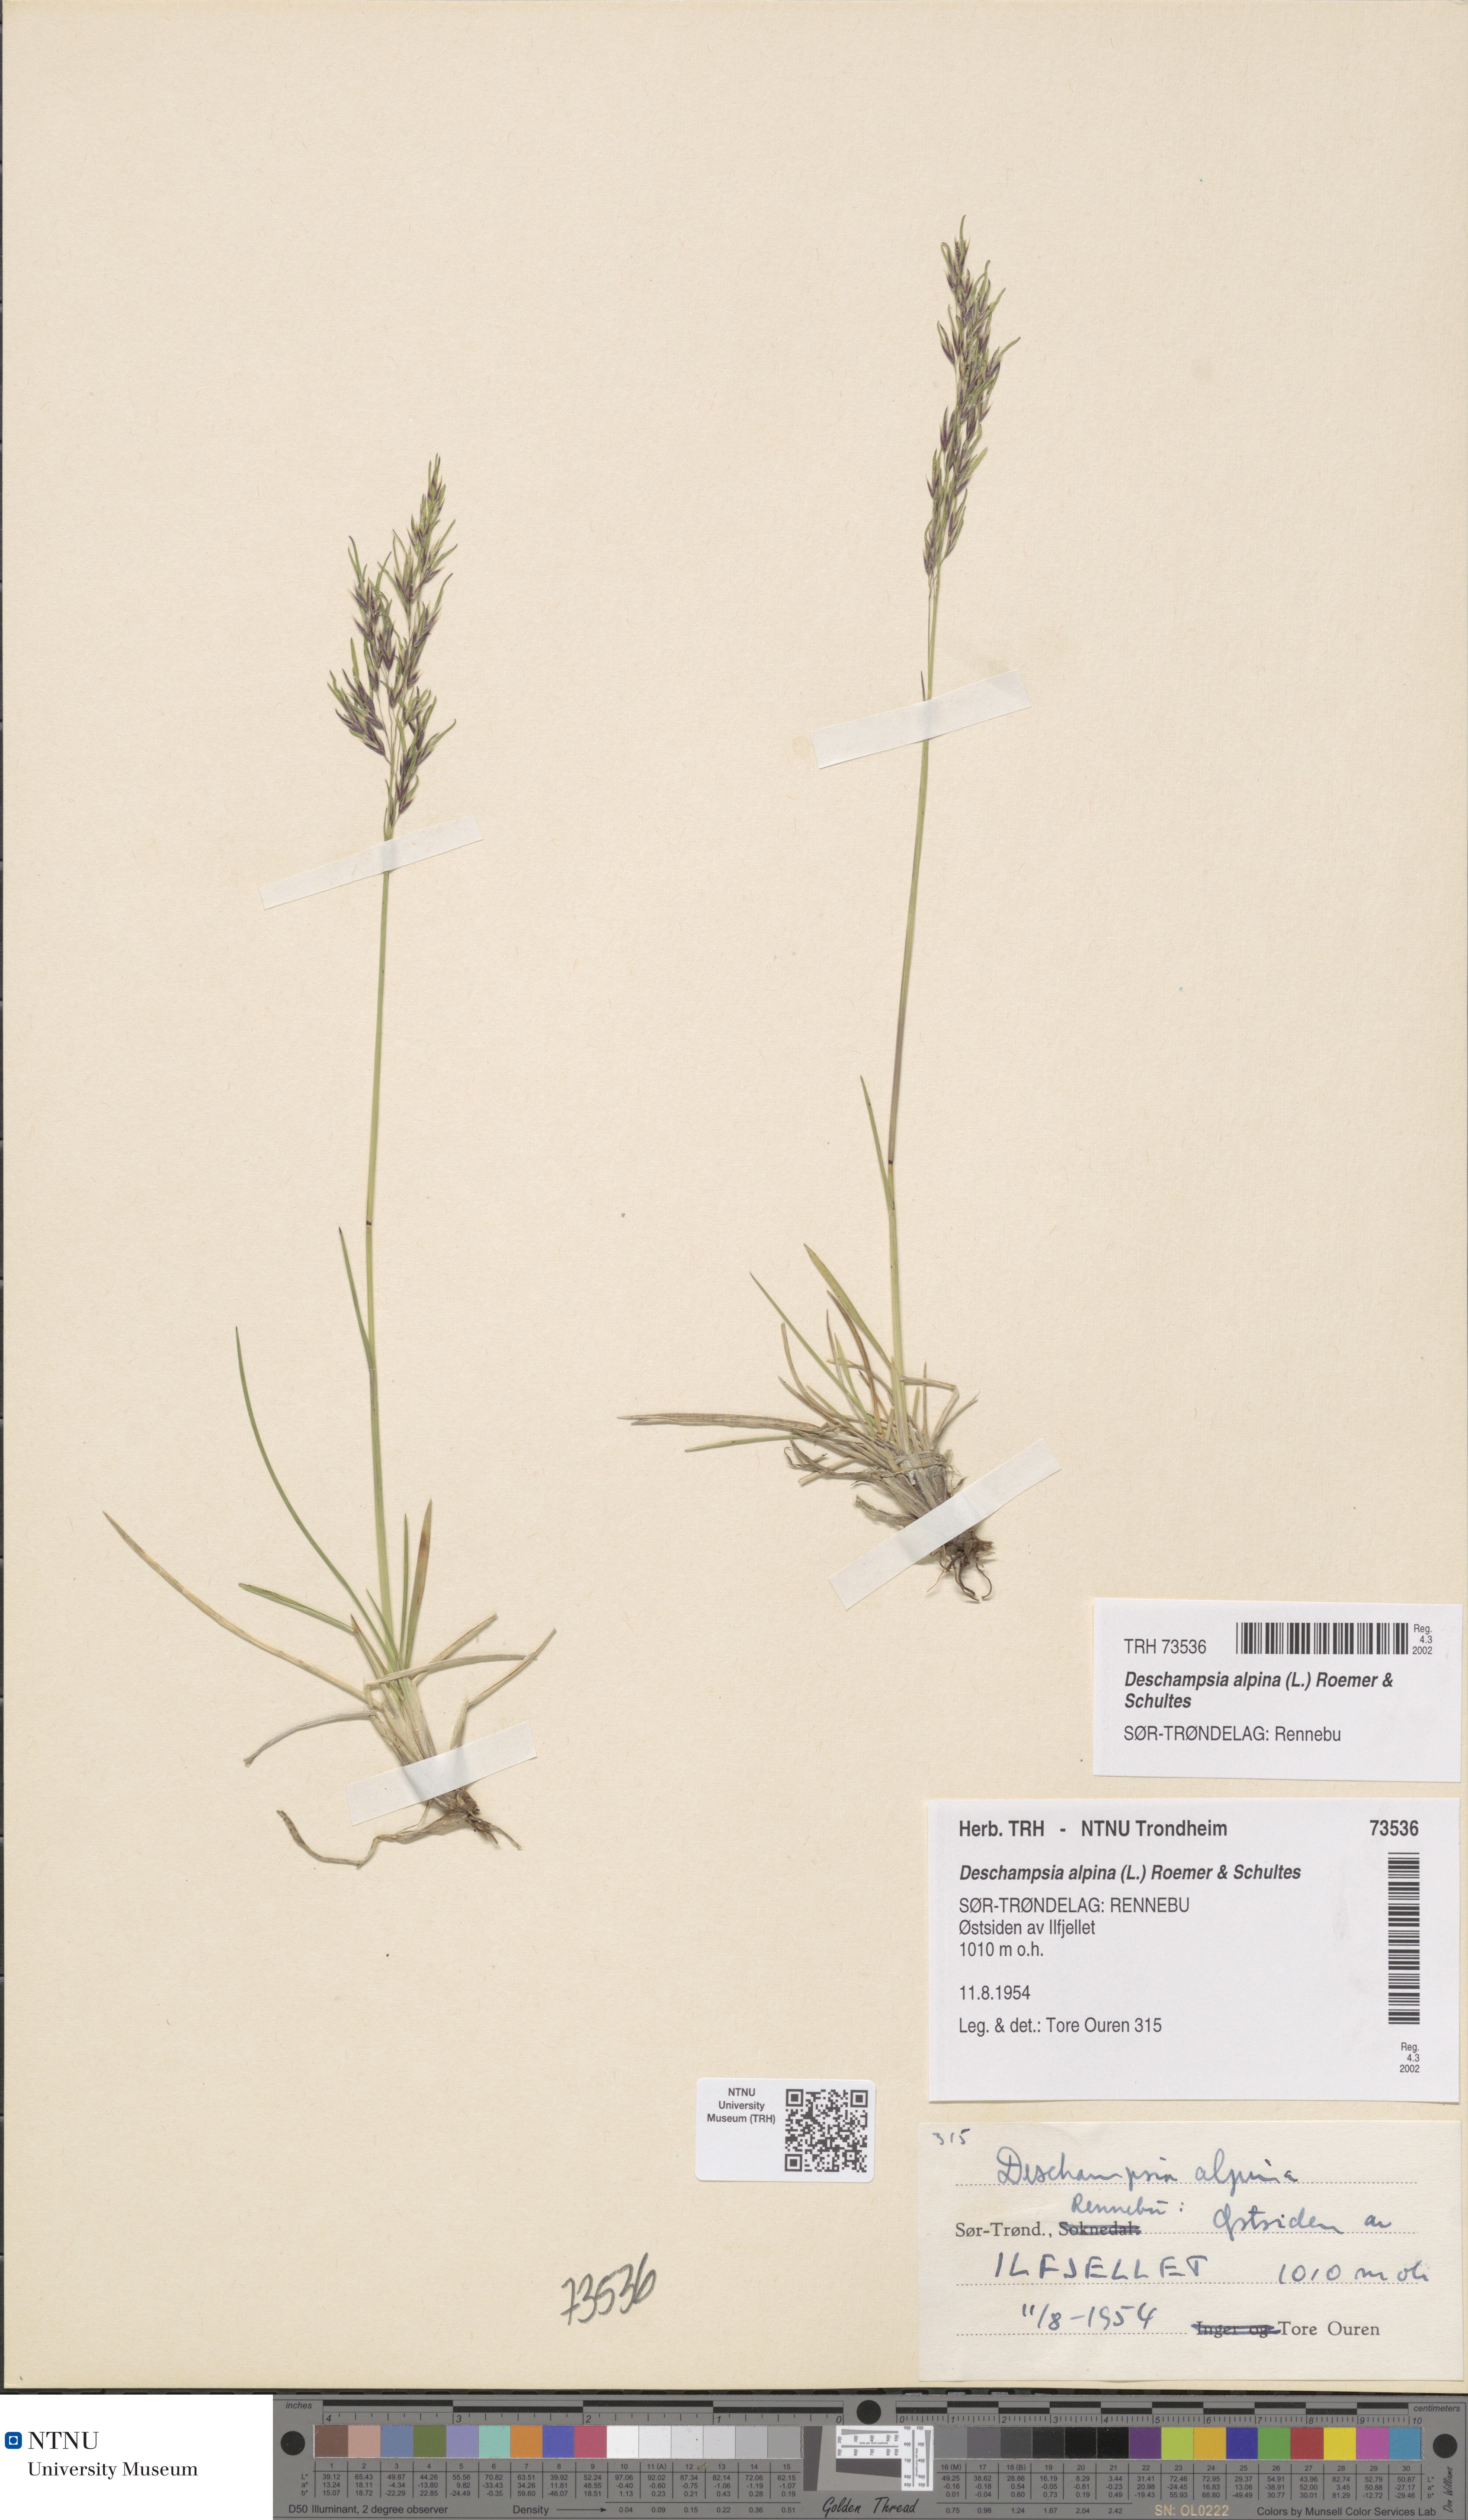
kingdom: Plantae
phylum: Tracheophyta
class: Liliopsida
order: Poales
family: Poaceae
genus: Deschampsia
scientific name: Deschampsia cespitosa
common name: Tufted hair-grass
